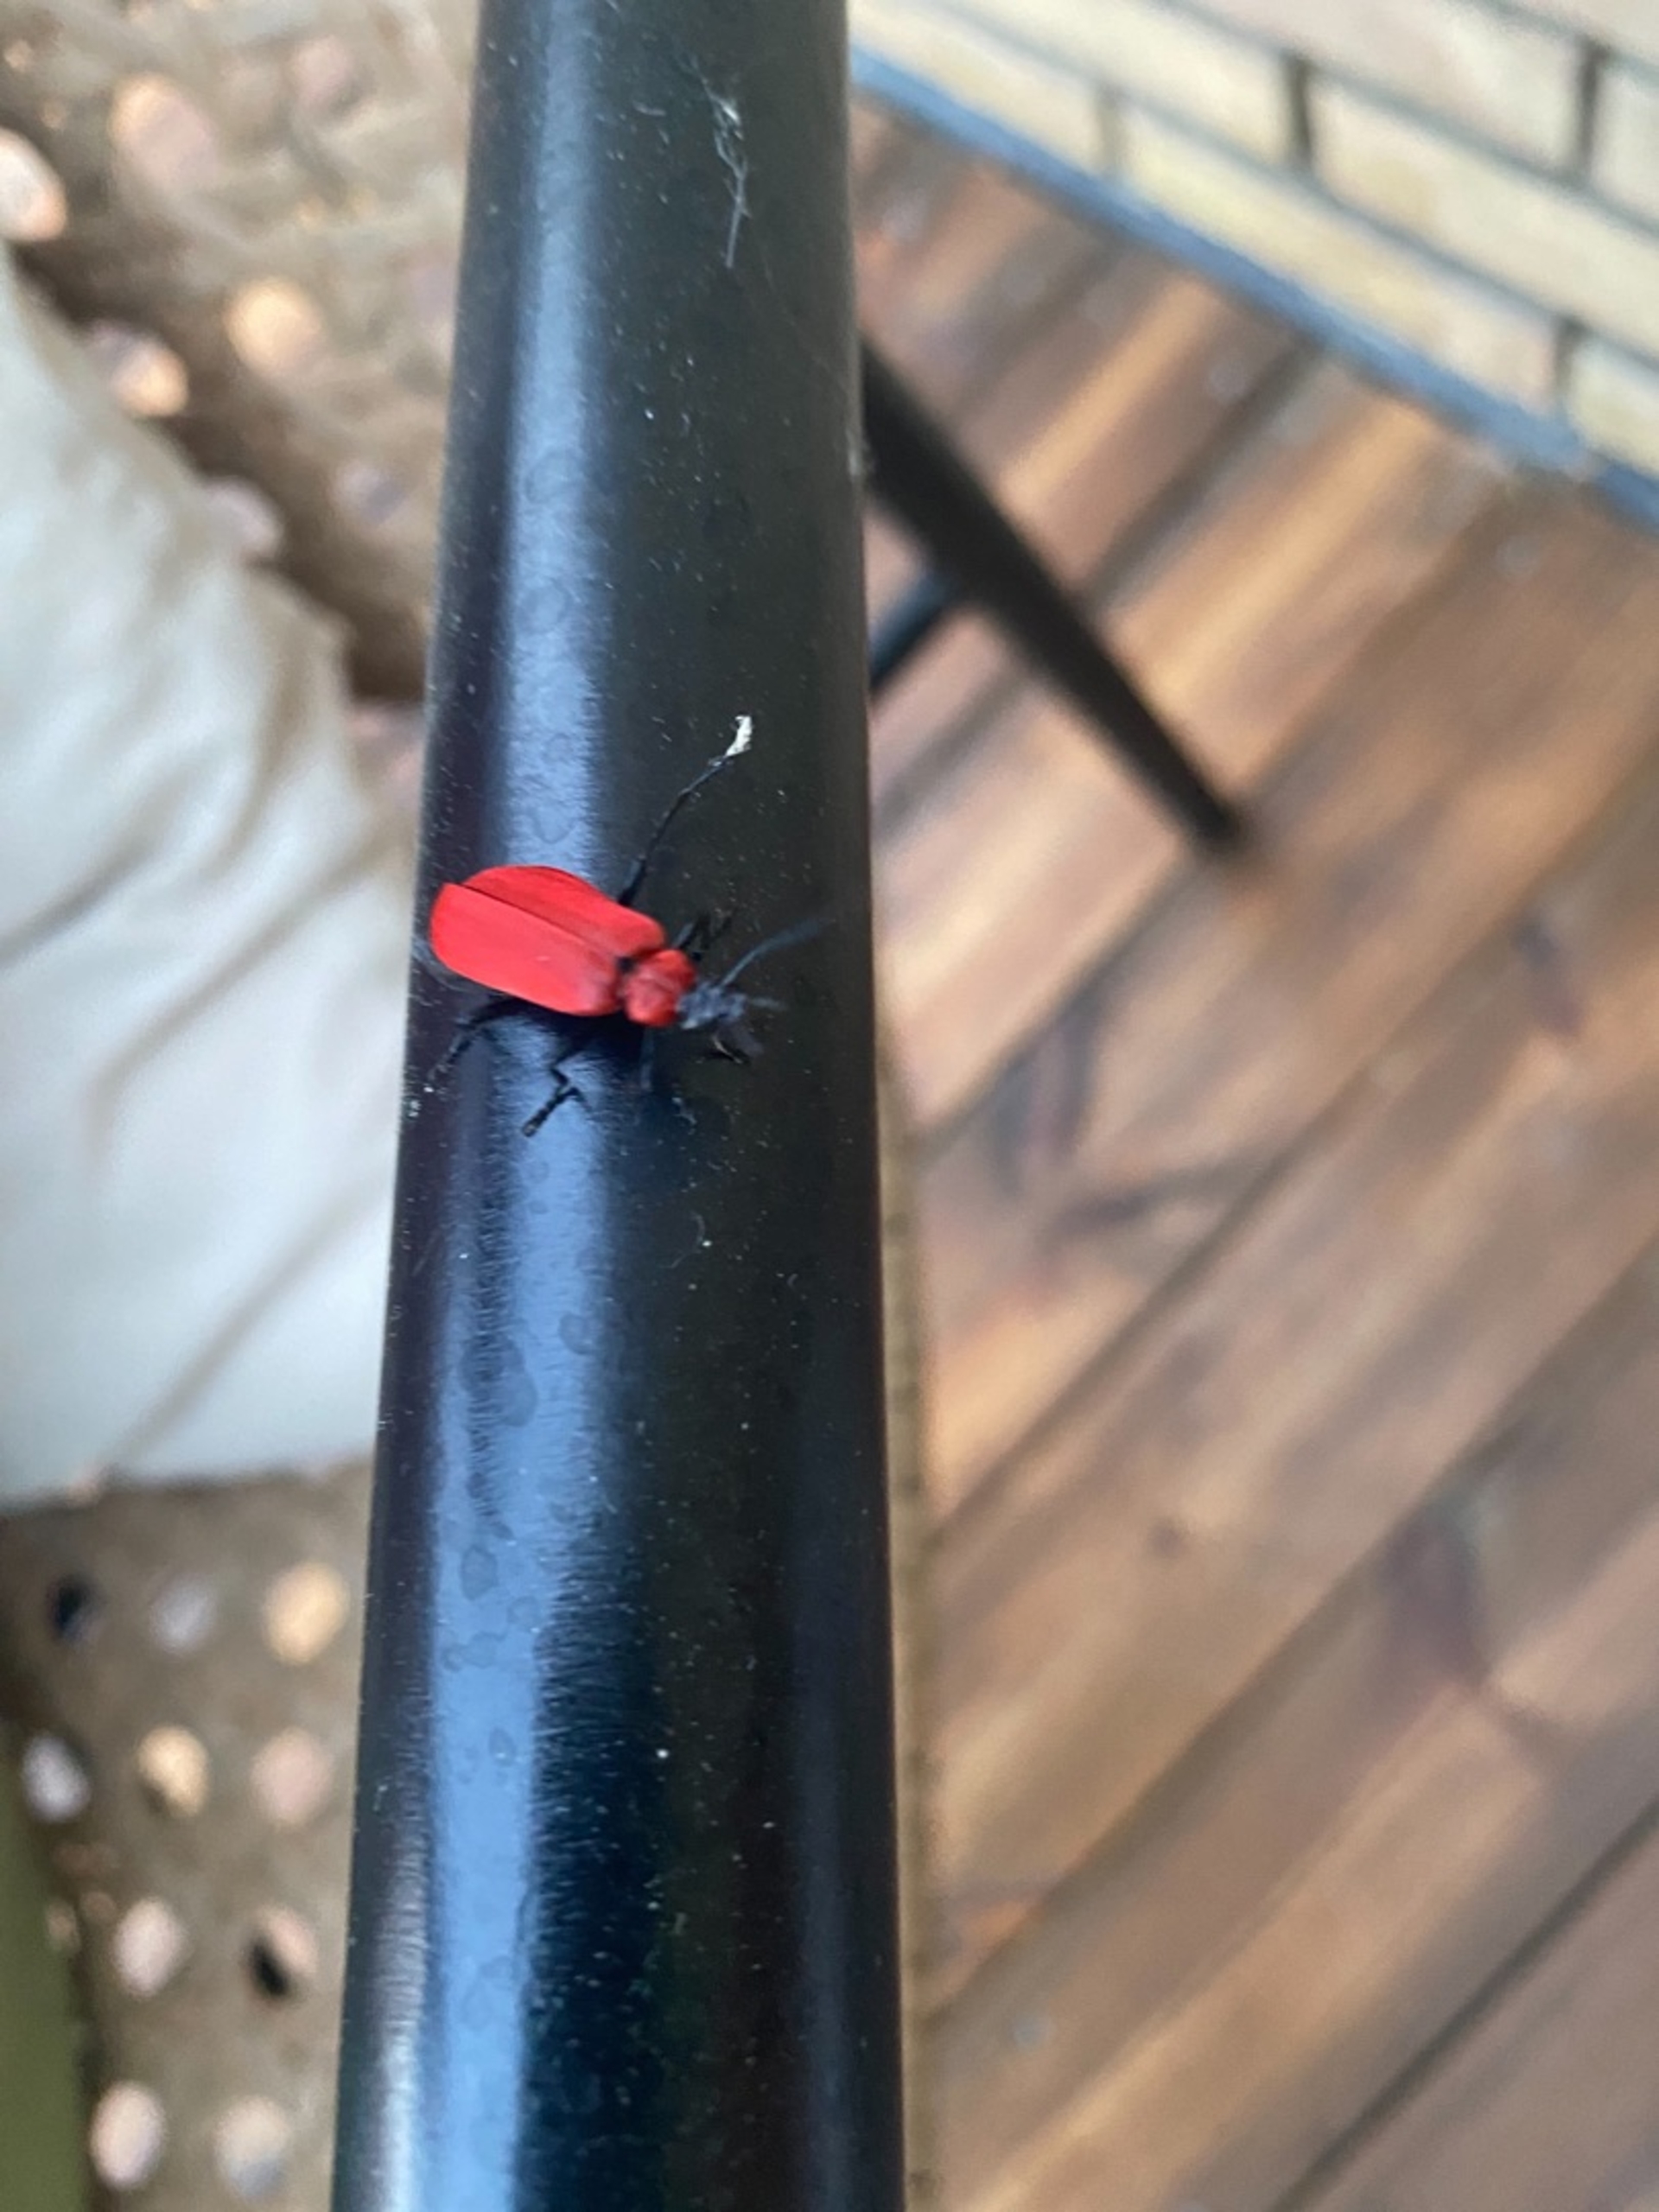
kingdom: Animalia
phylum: Arthropoda
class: Insecta
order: Coleoptera
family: Pyrochroidae
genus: Pyrochroa
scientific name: Pyrochroa coccinea
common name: Sorthovedet kardinalbille
